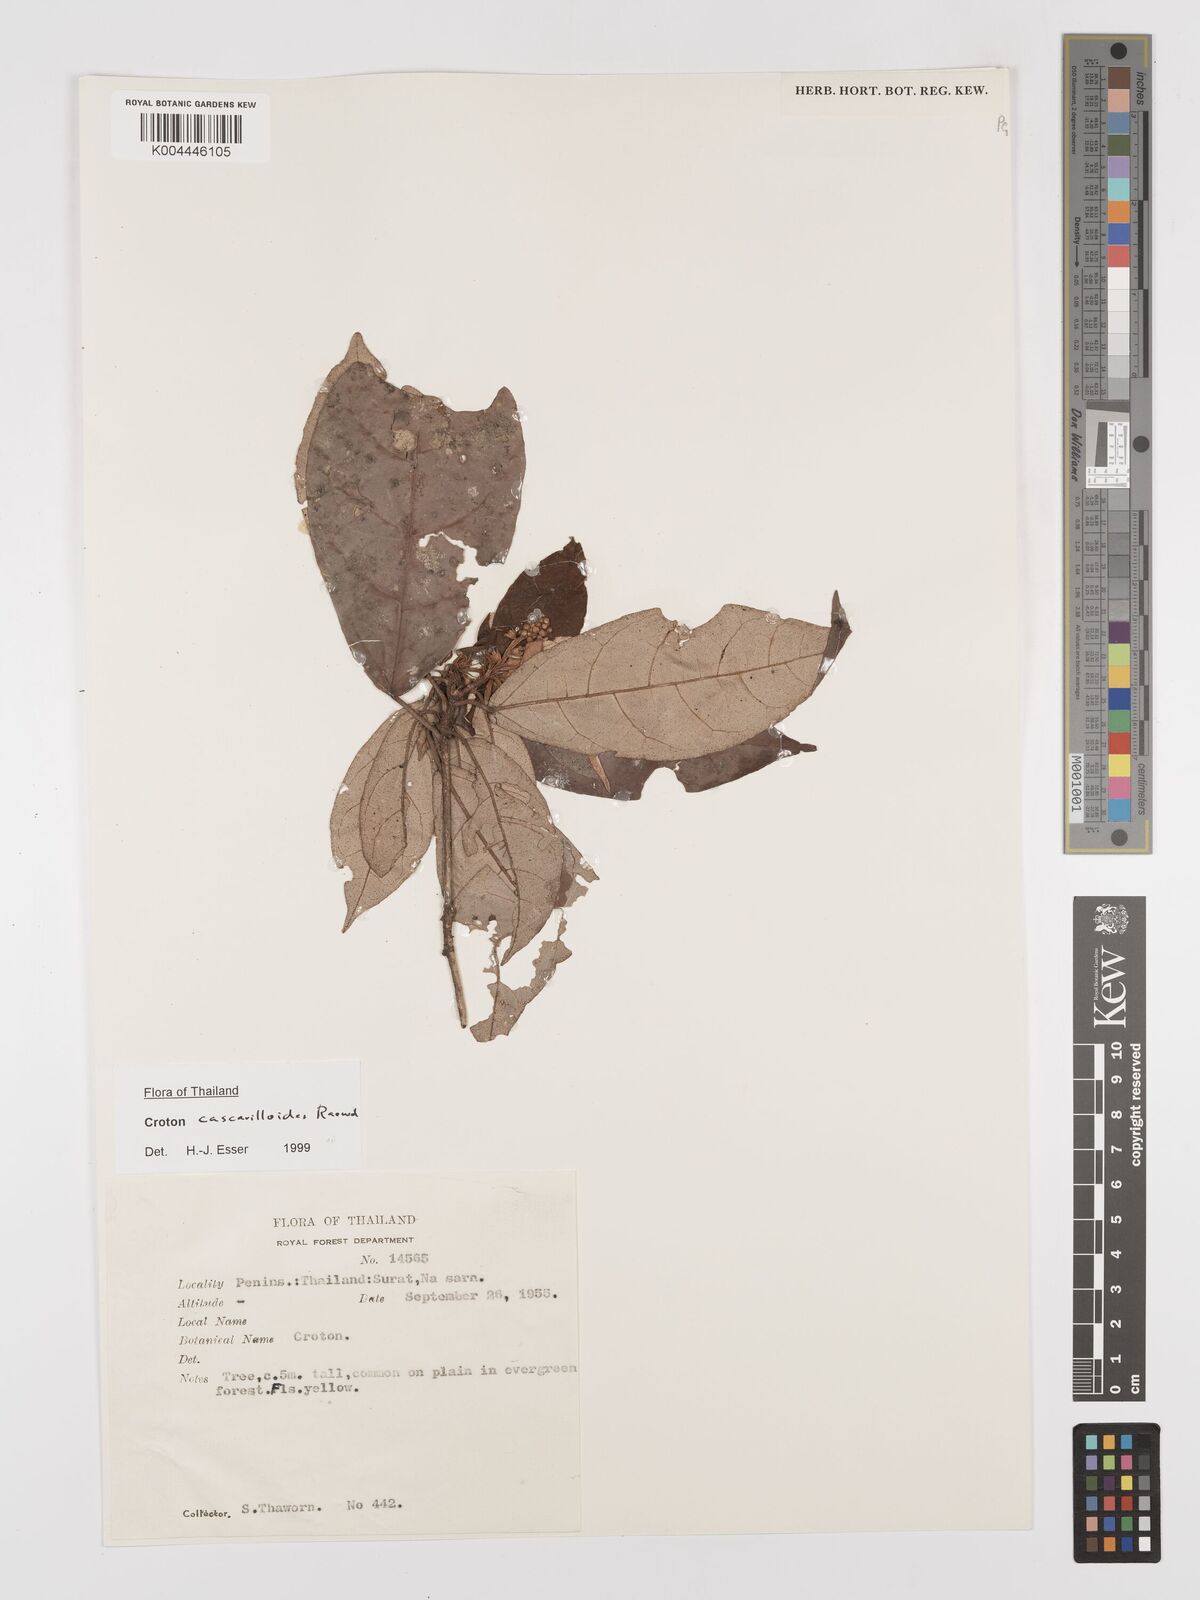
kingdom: Plantae
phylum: Tracheophyta
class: Magnoliopsida
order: Malpighiales
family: Euphorbiaceae
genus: Croton
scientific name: Croton cascarilloides
